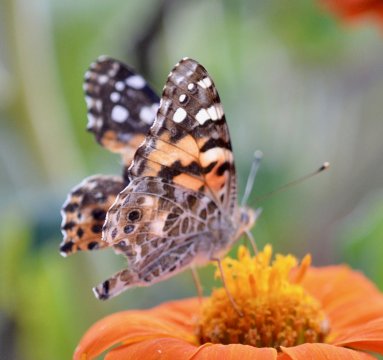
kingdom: Animalia
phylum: Arthropoda
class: Insecta
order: Lepidoptera
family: Nymphalidae
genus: Vanessa
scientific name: Vanessa cardui
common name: Painted Lady
